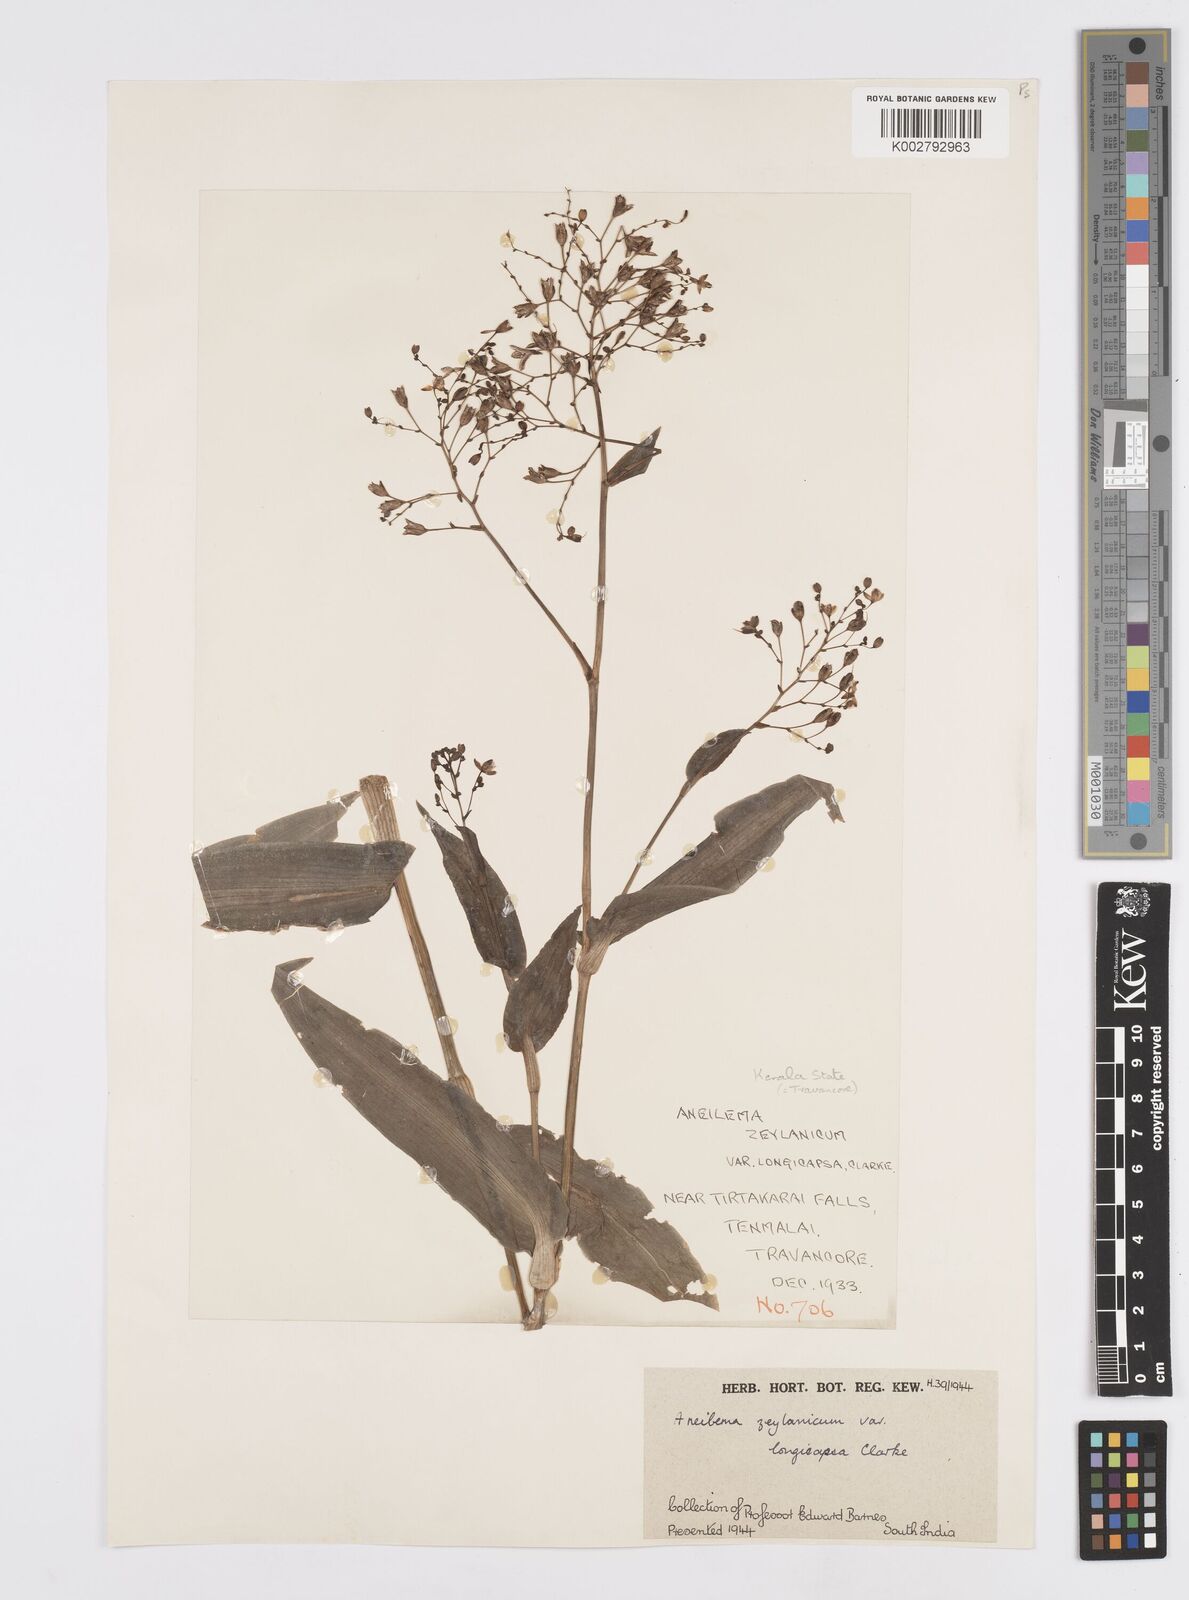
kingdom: Plantae
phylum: Tracheophyta
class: Liliopsida
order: Commelinales
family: Commelinaceae
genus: Murdannia
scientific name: Murdannia zeylanica
